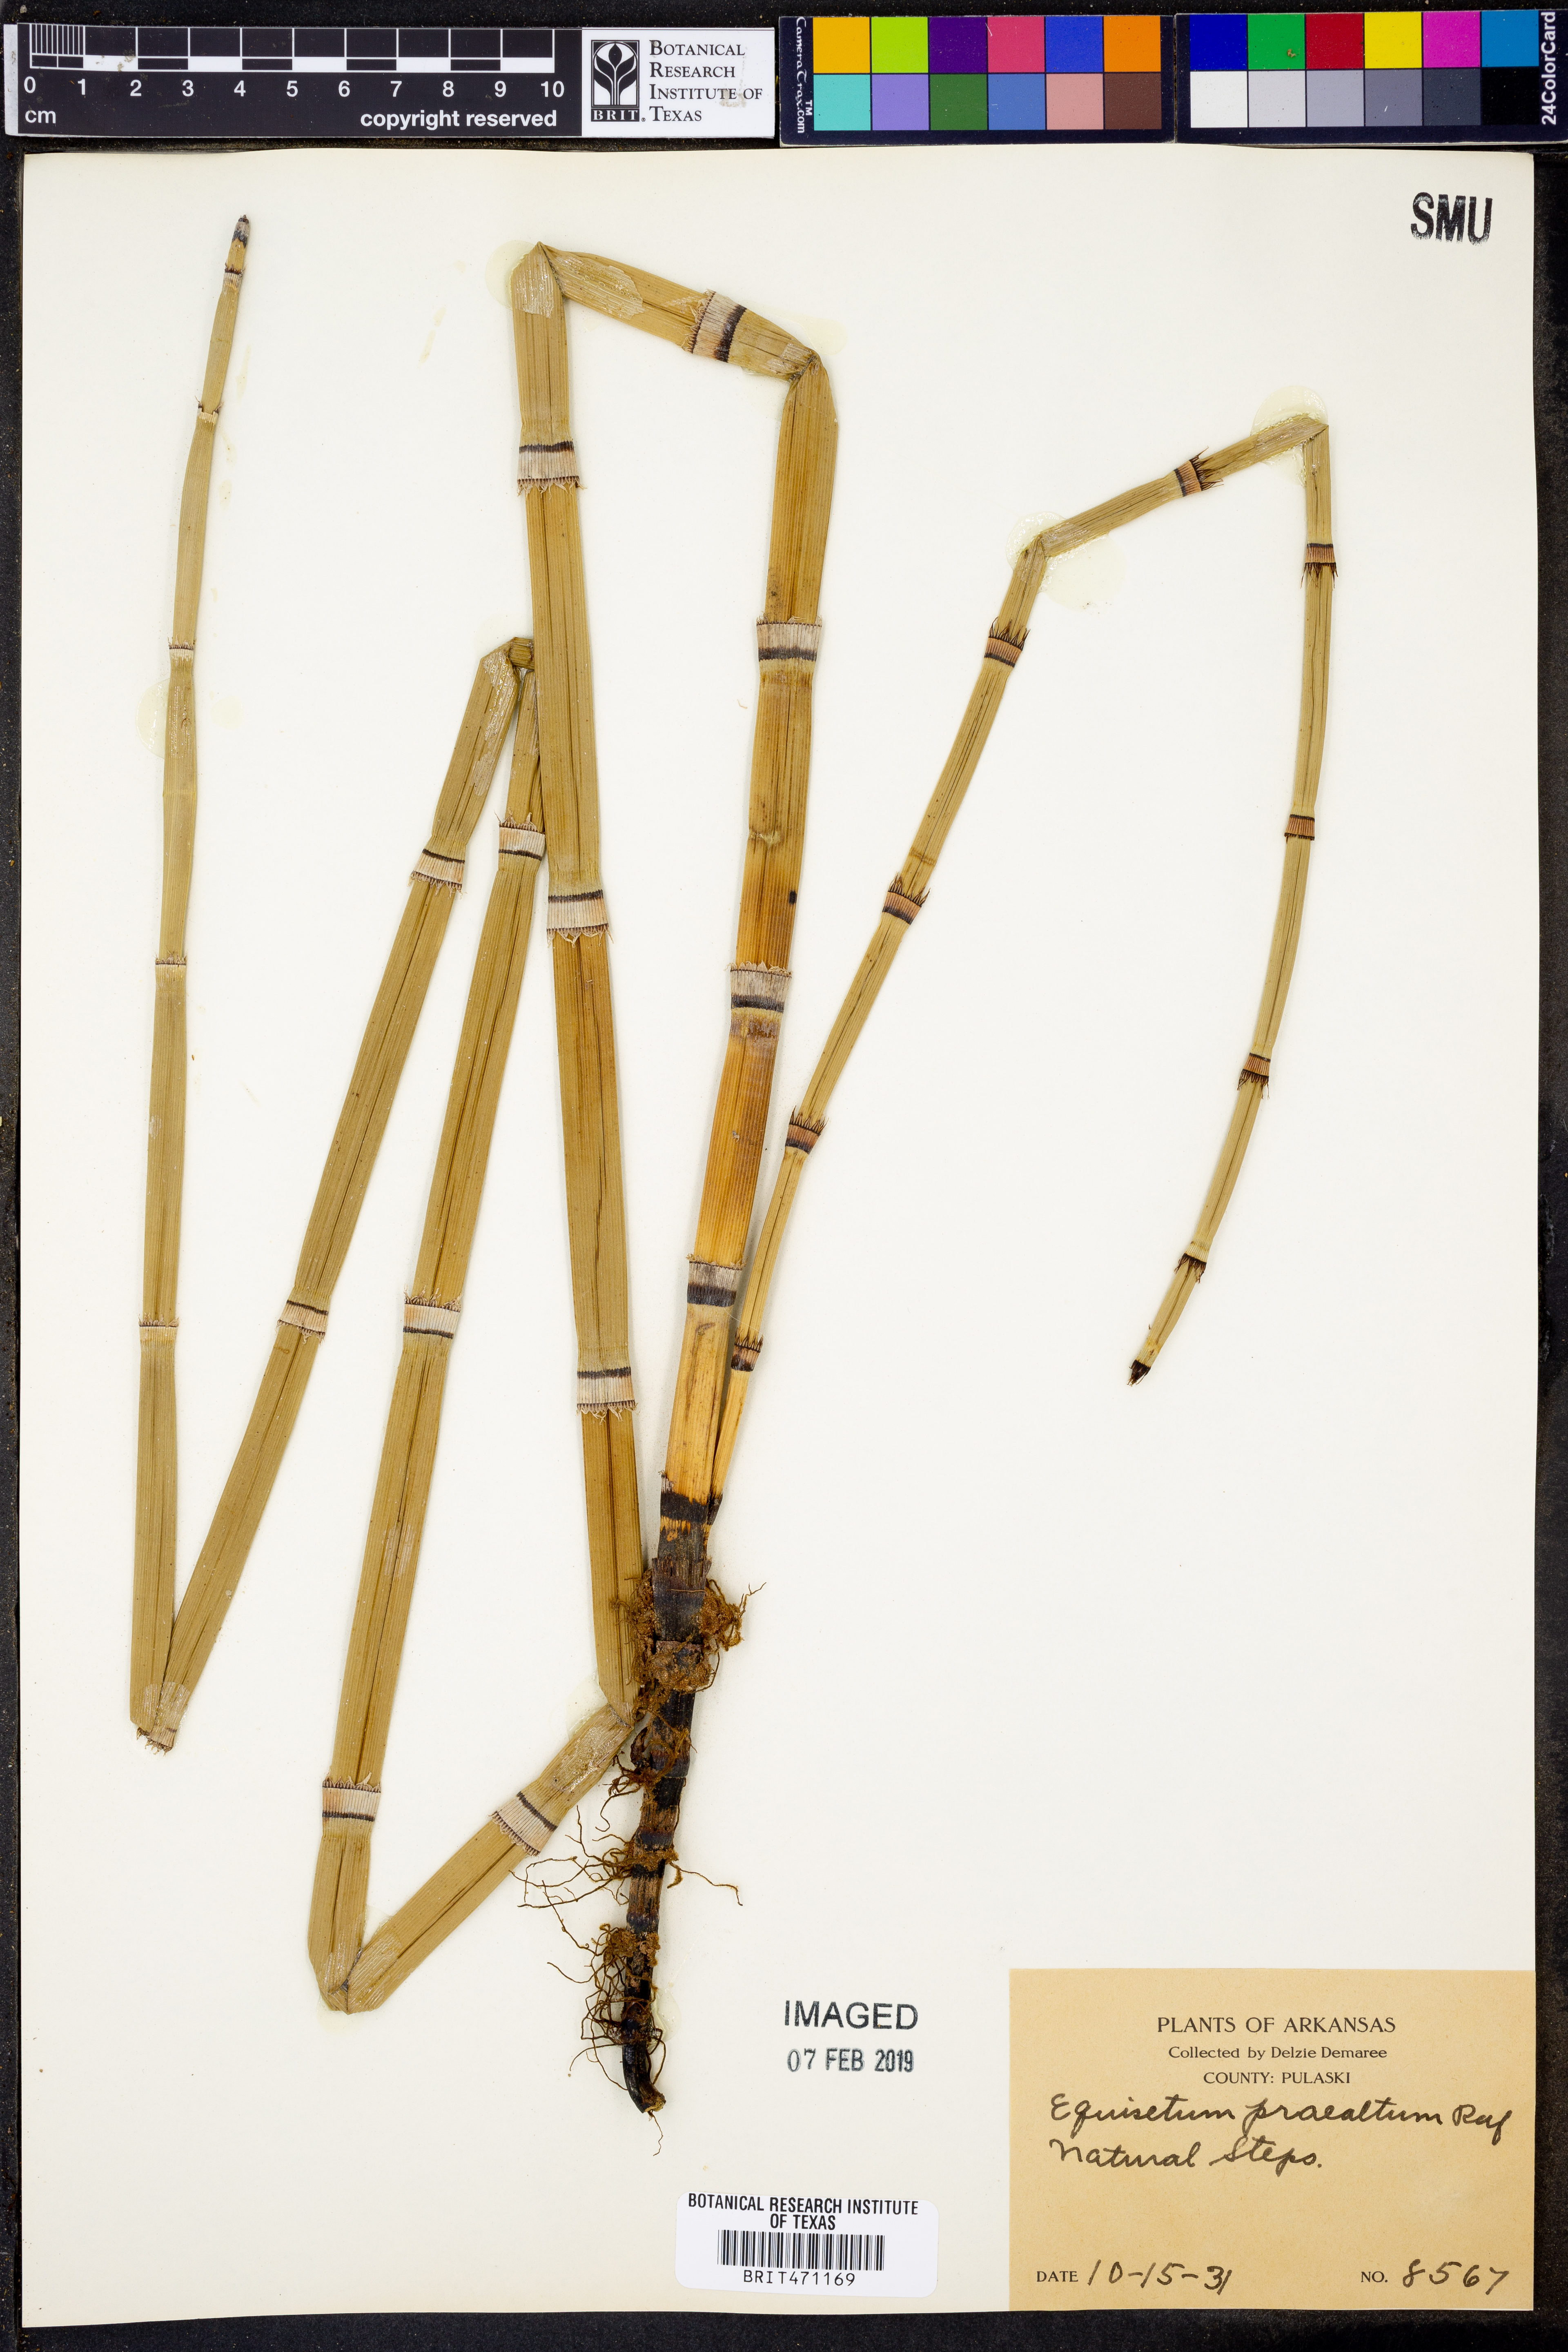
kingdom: Plantae
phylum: Tracheophyta
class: Polypodiopsida
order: Equisetales
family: Equisetaceae
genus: Equisetum
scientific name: Equisetum praealtum
